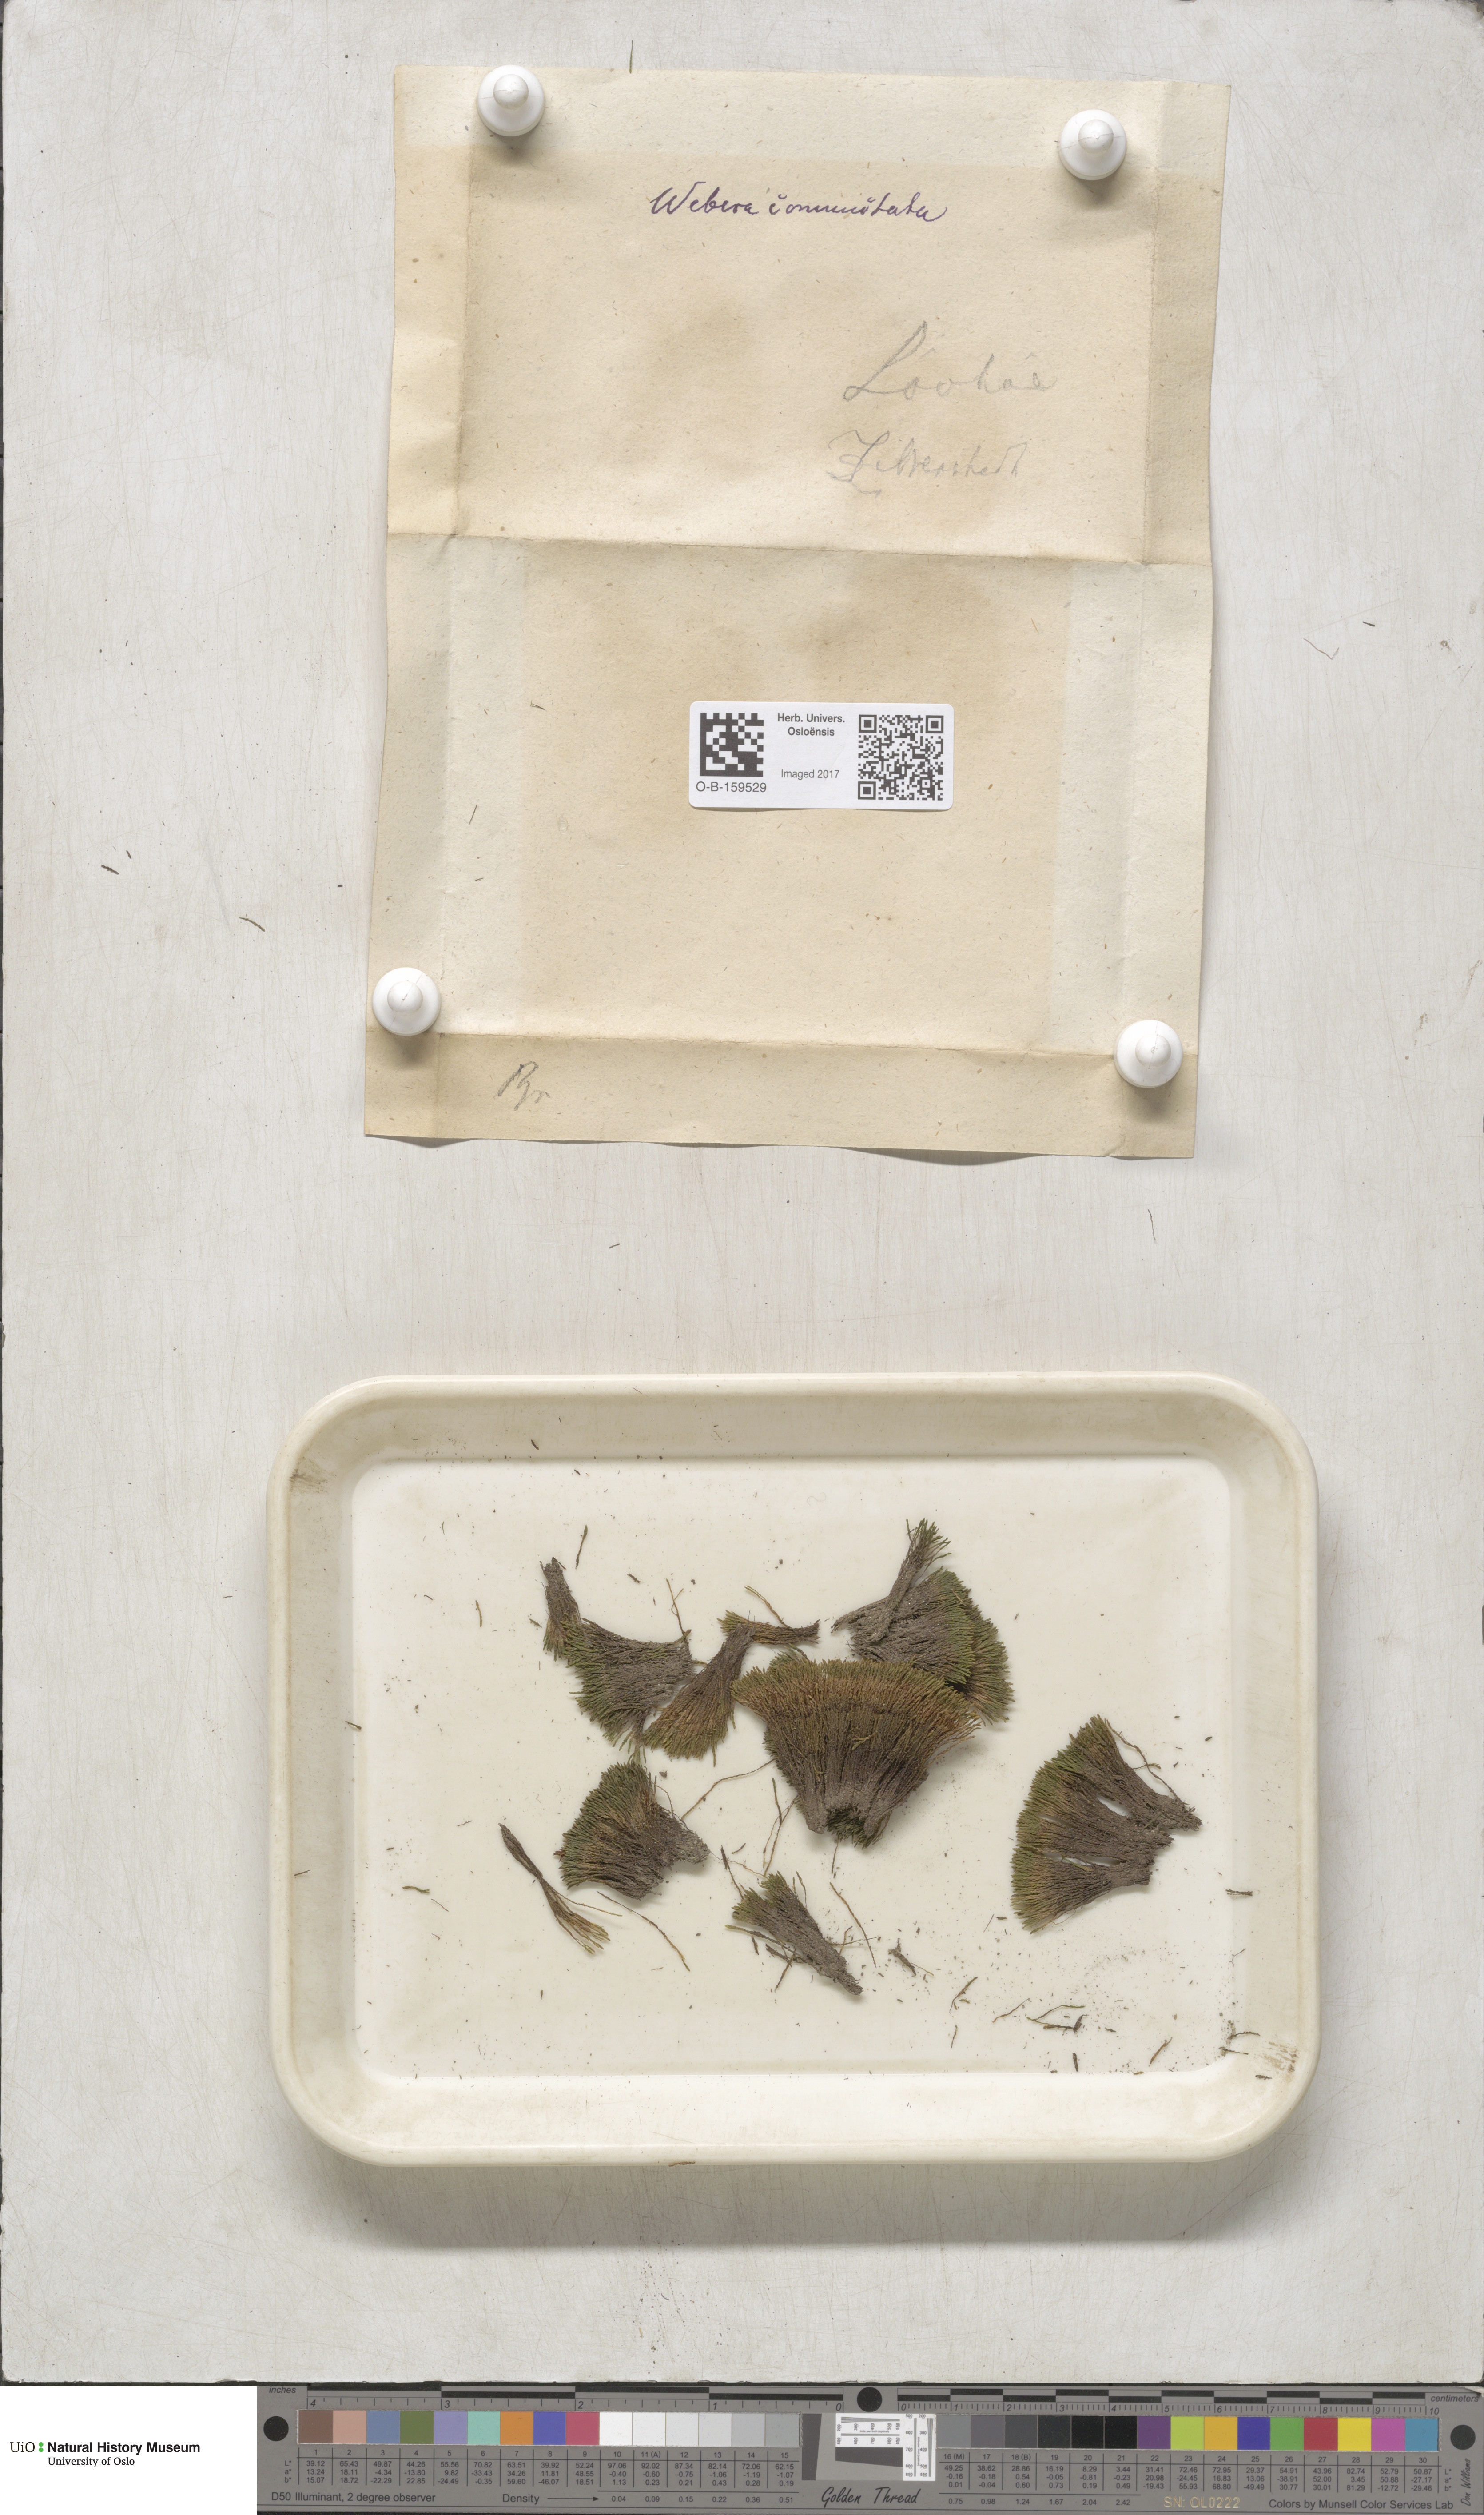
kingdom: Plantae
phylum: Bryophyta
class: Bryopsida
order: Bryales
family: Mniaceae
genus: Pohlia
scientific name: Pohlia drummondii
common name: Drummond's nodding moss
